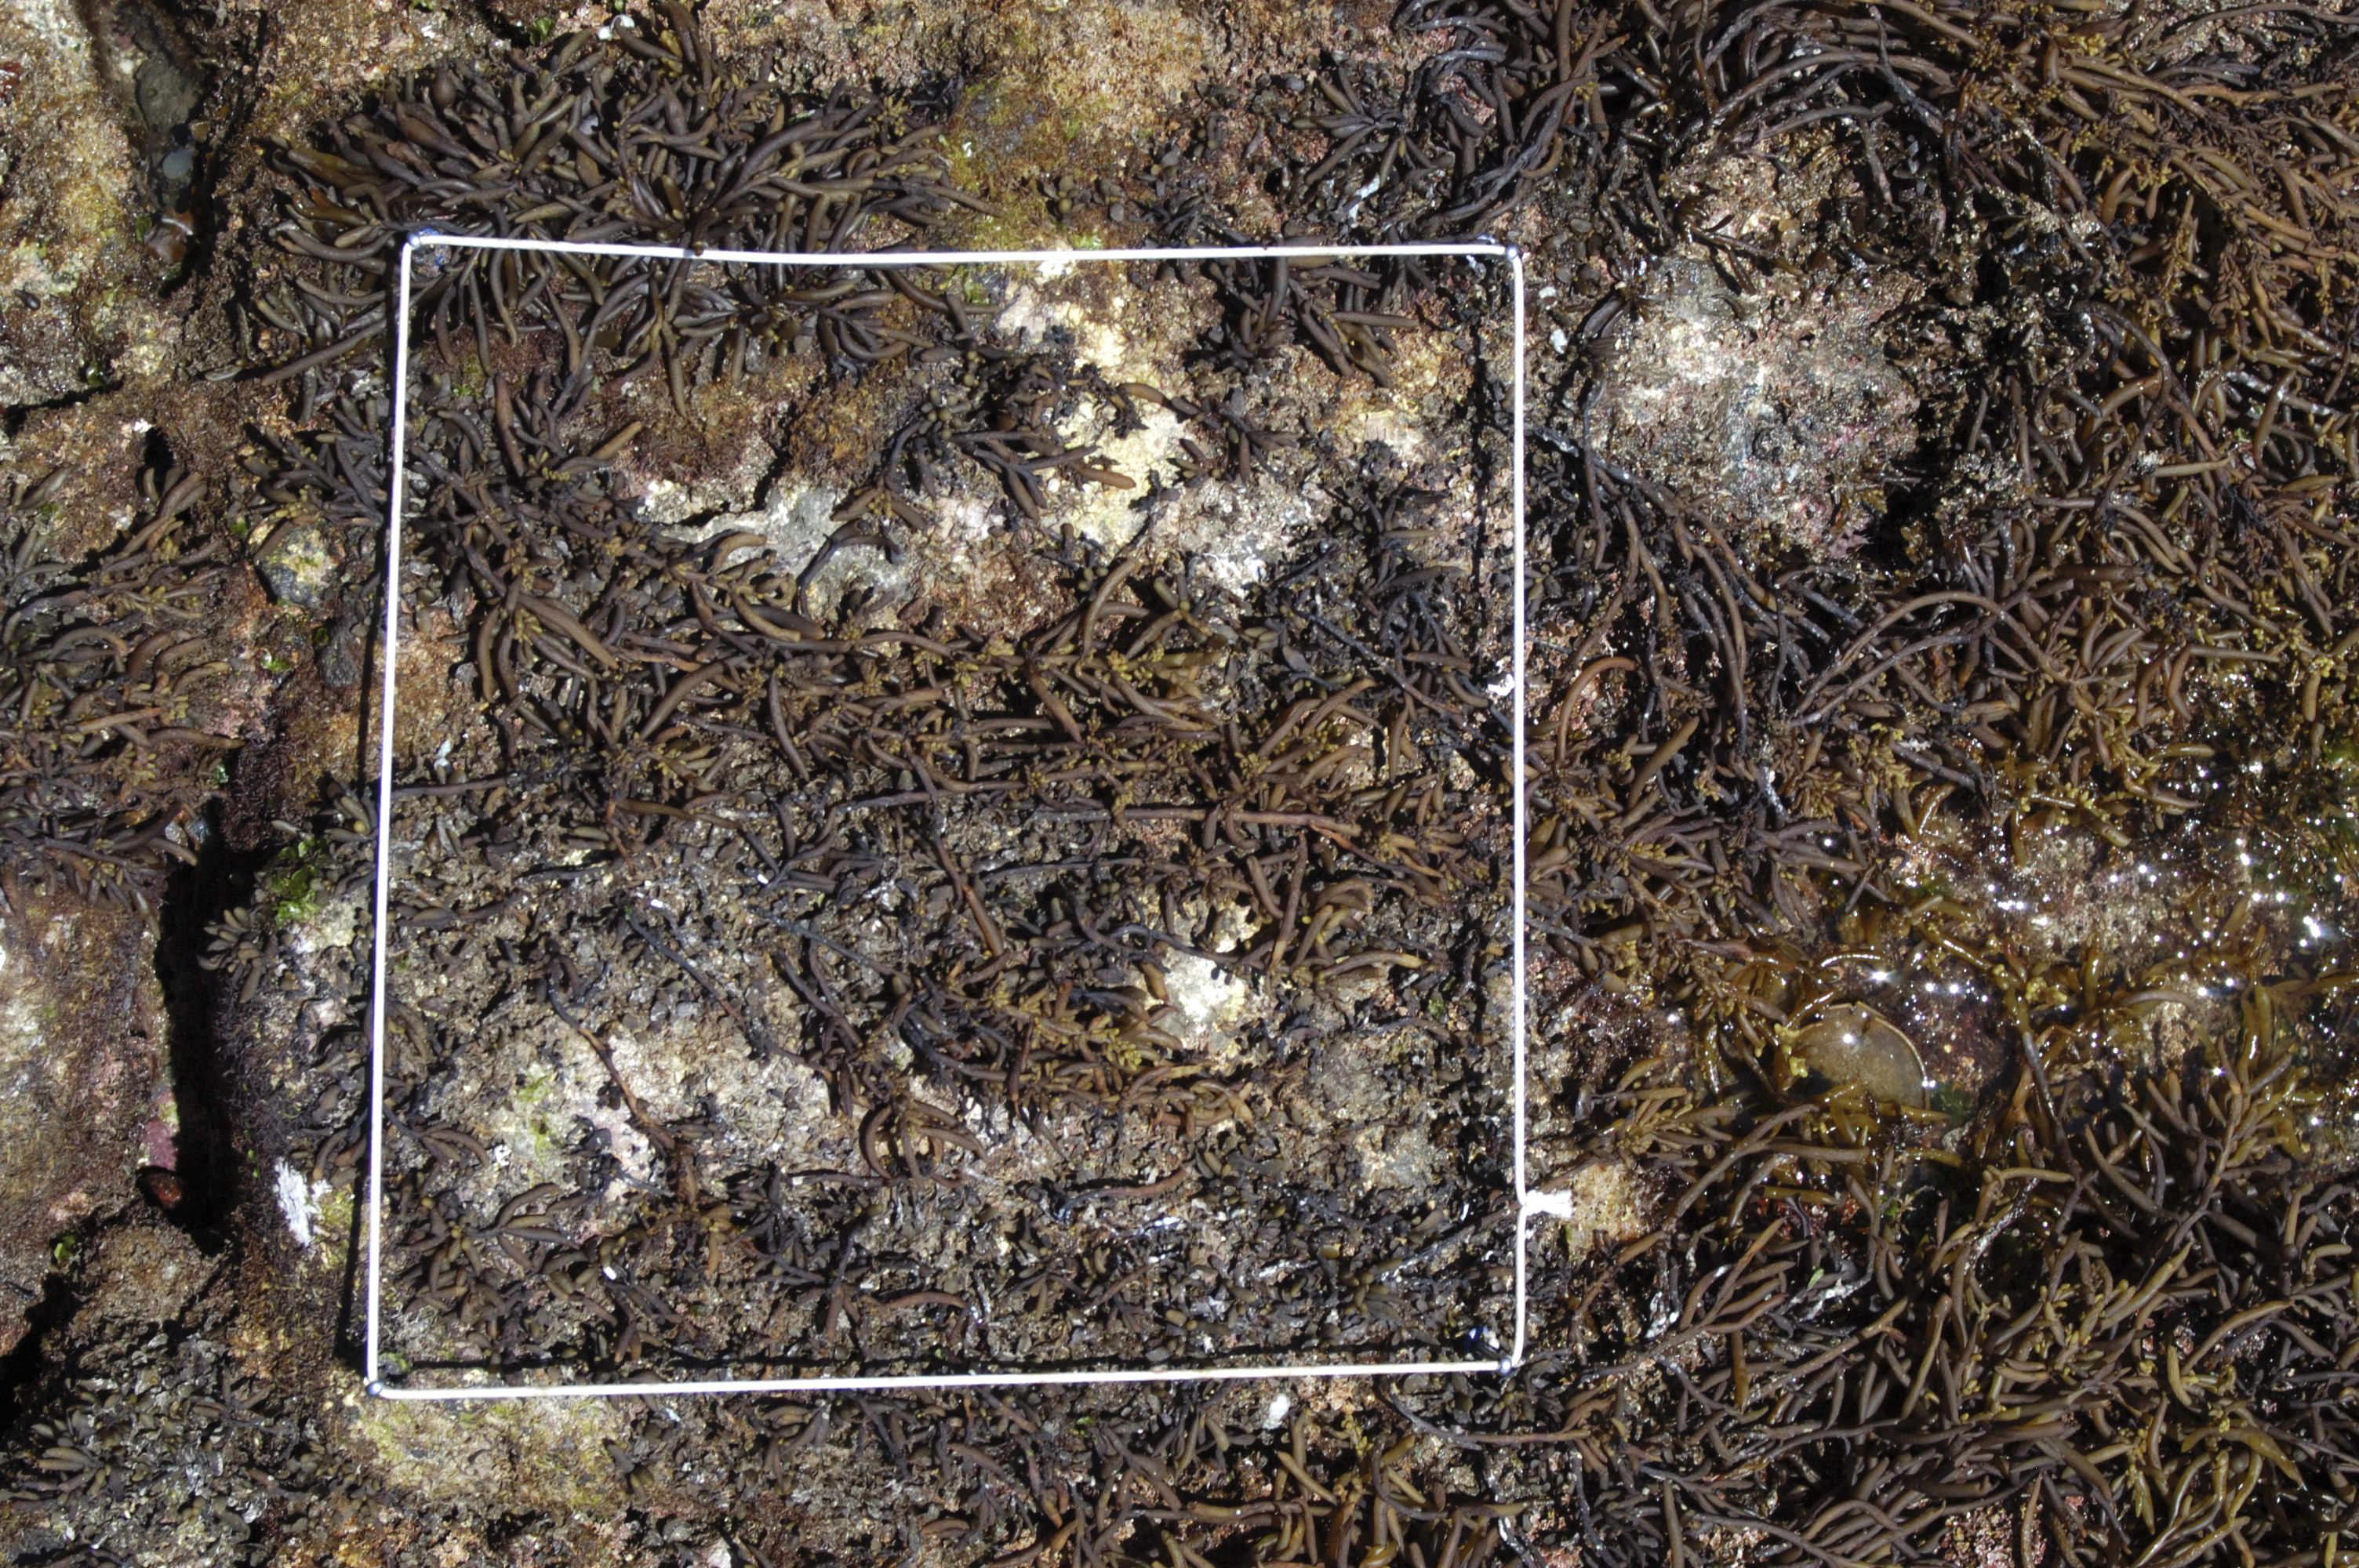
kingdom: Chromista
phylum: Ochrophyta
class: Phaeophyceae
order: Fucales
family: Sargassaceae
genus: Sargassum
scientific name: Sargassum fusiforme
